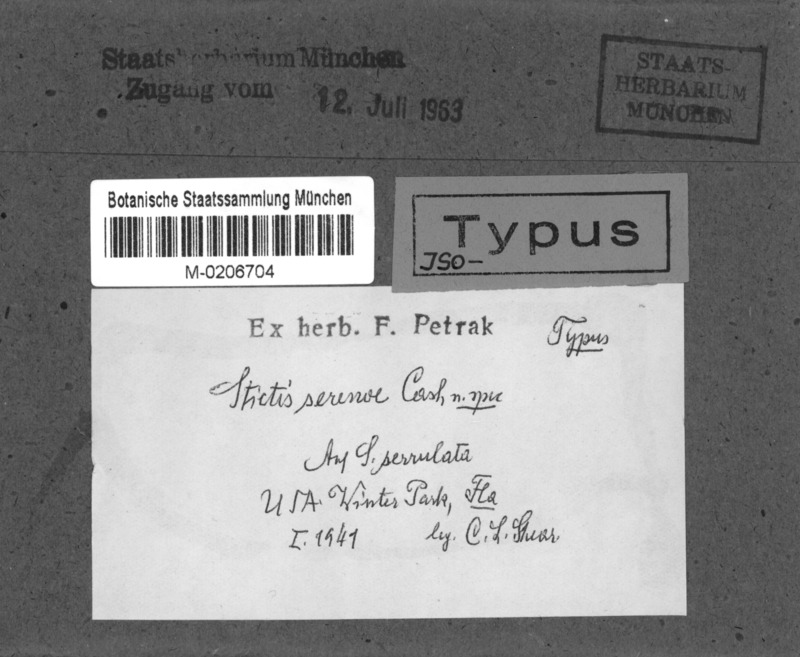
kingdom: Fungi
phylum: Ascomycota
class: Lecanoromycetes
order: Ostropales
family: Stictidaceae
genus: Stictis
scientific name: Stictis serenoae
